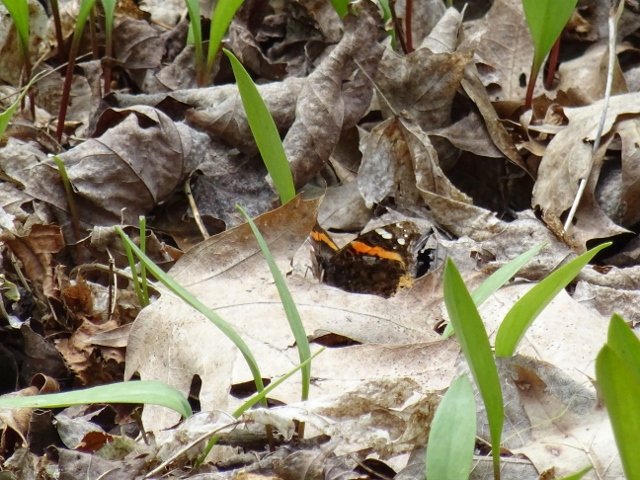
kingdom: Animalia
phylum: Arthropoda
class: Insecta
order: Lepidoptera
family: Nymphalidae
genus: Vanessa
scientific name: Vanessa atalanta
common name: Red Admiral
